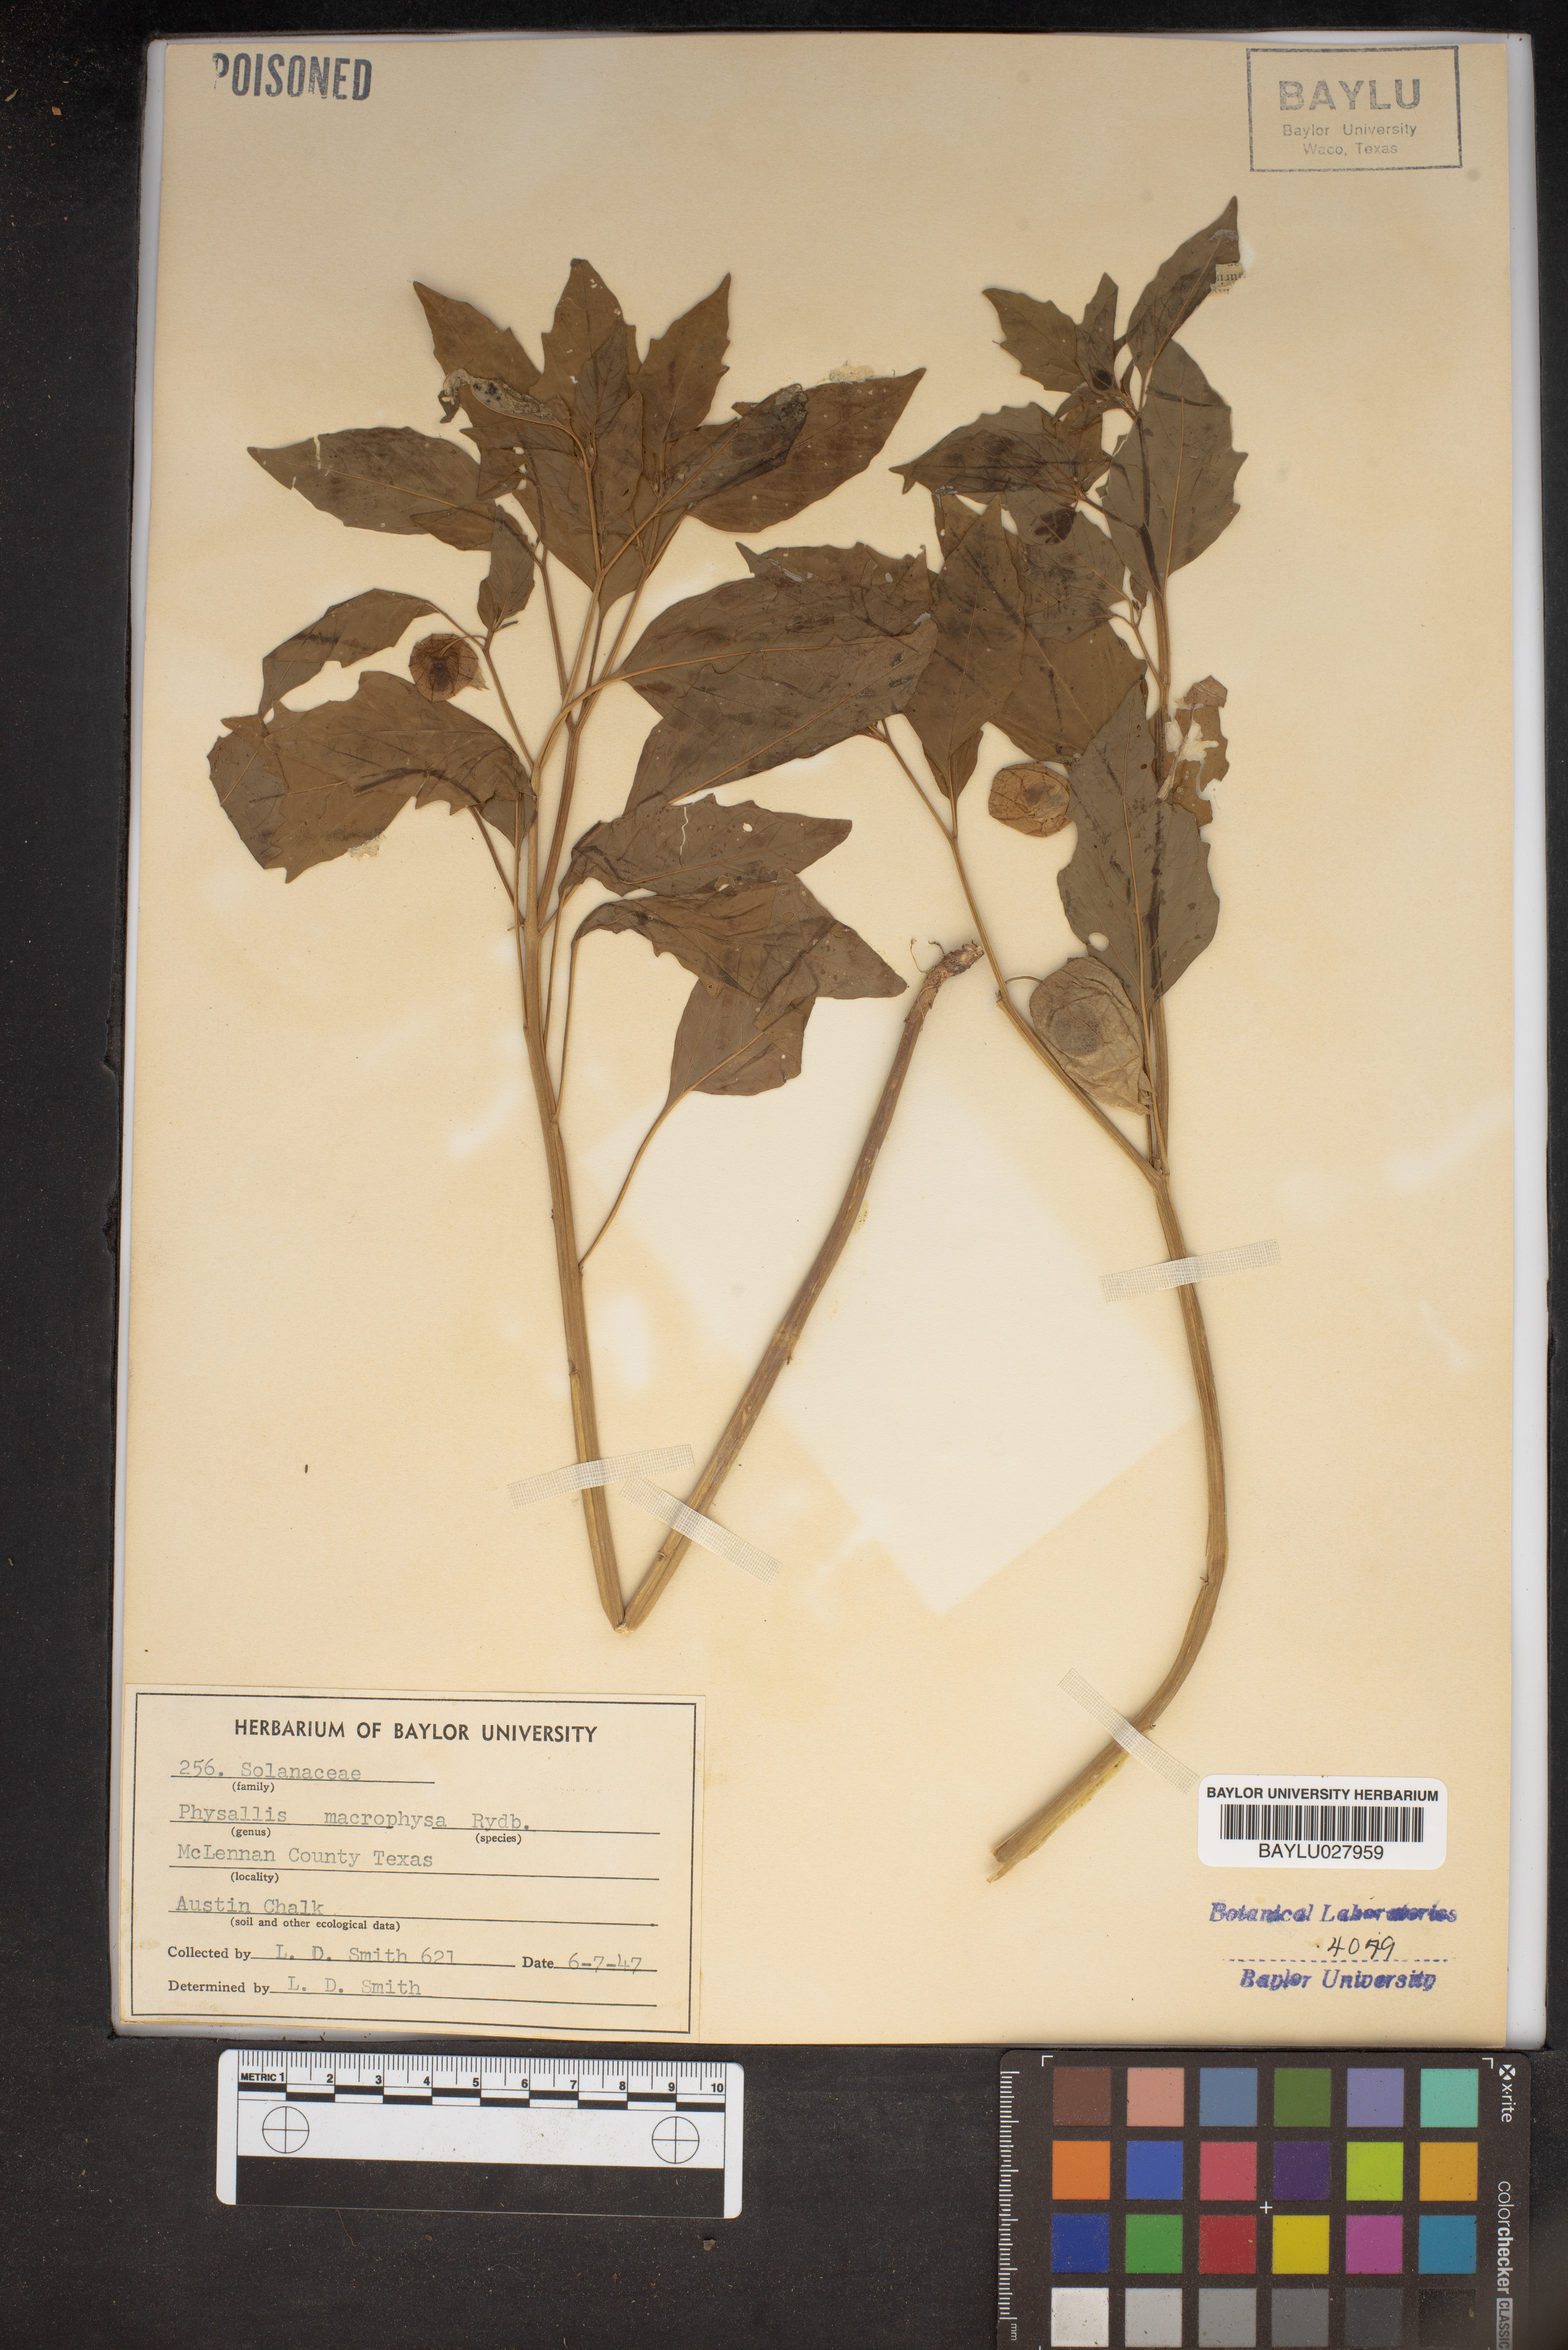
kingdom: Plantae
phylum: Tracheophyta
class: Magnoliopsida
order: Solanales
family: Solanaceae
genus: Physalis
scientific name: Physalis longifolia
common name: Common ground-cherry
